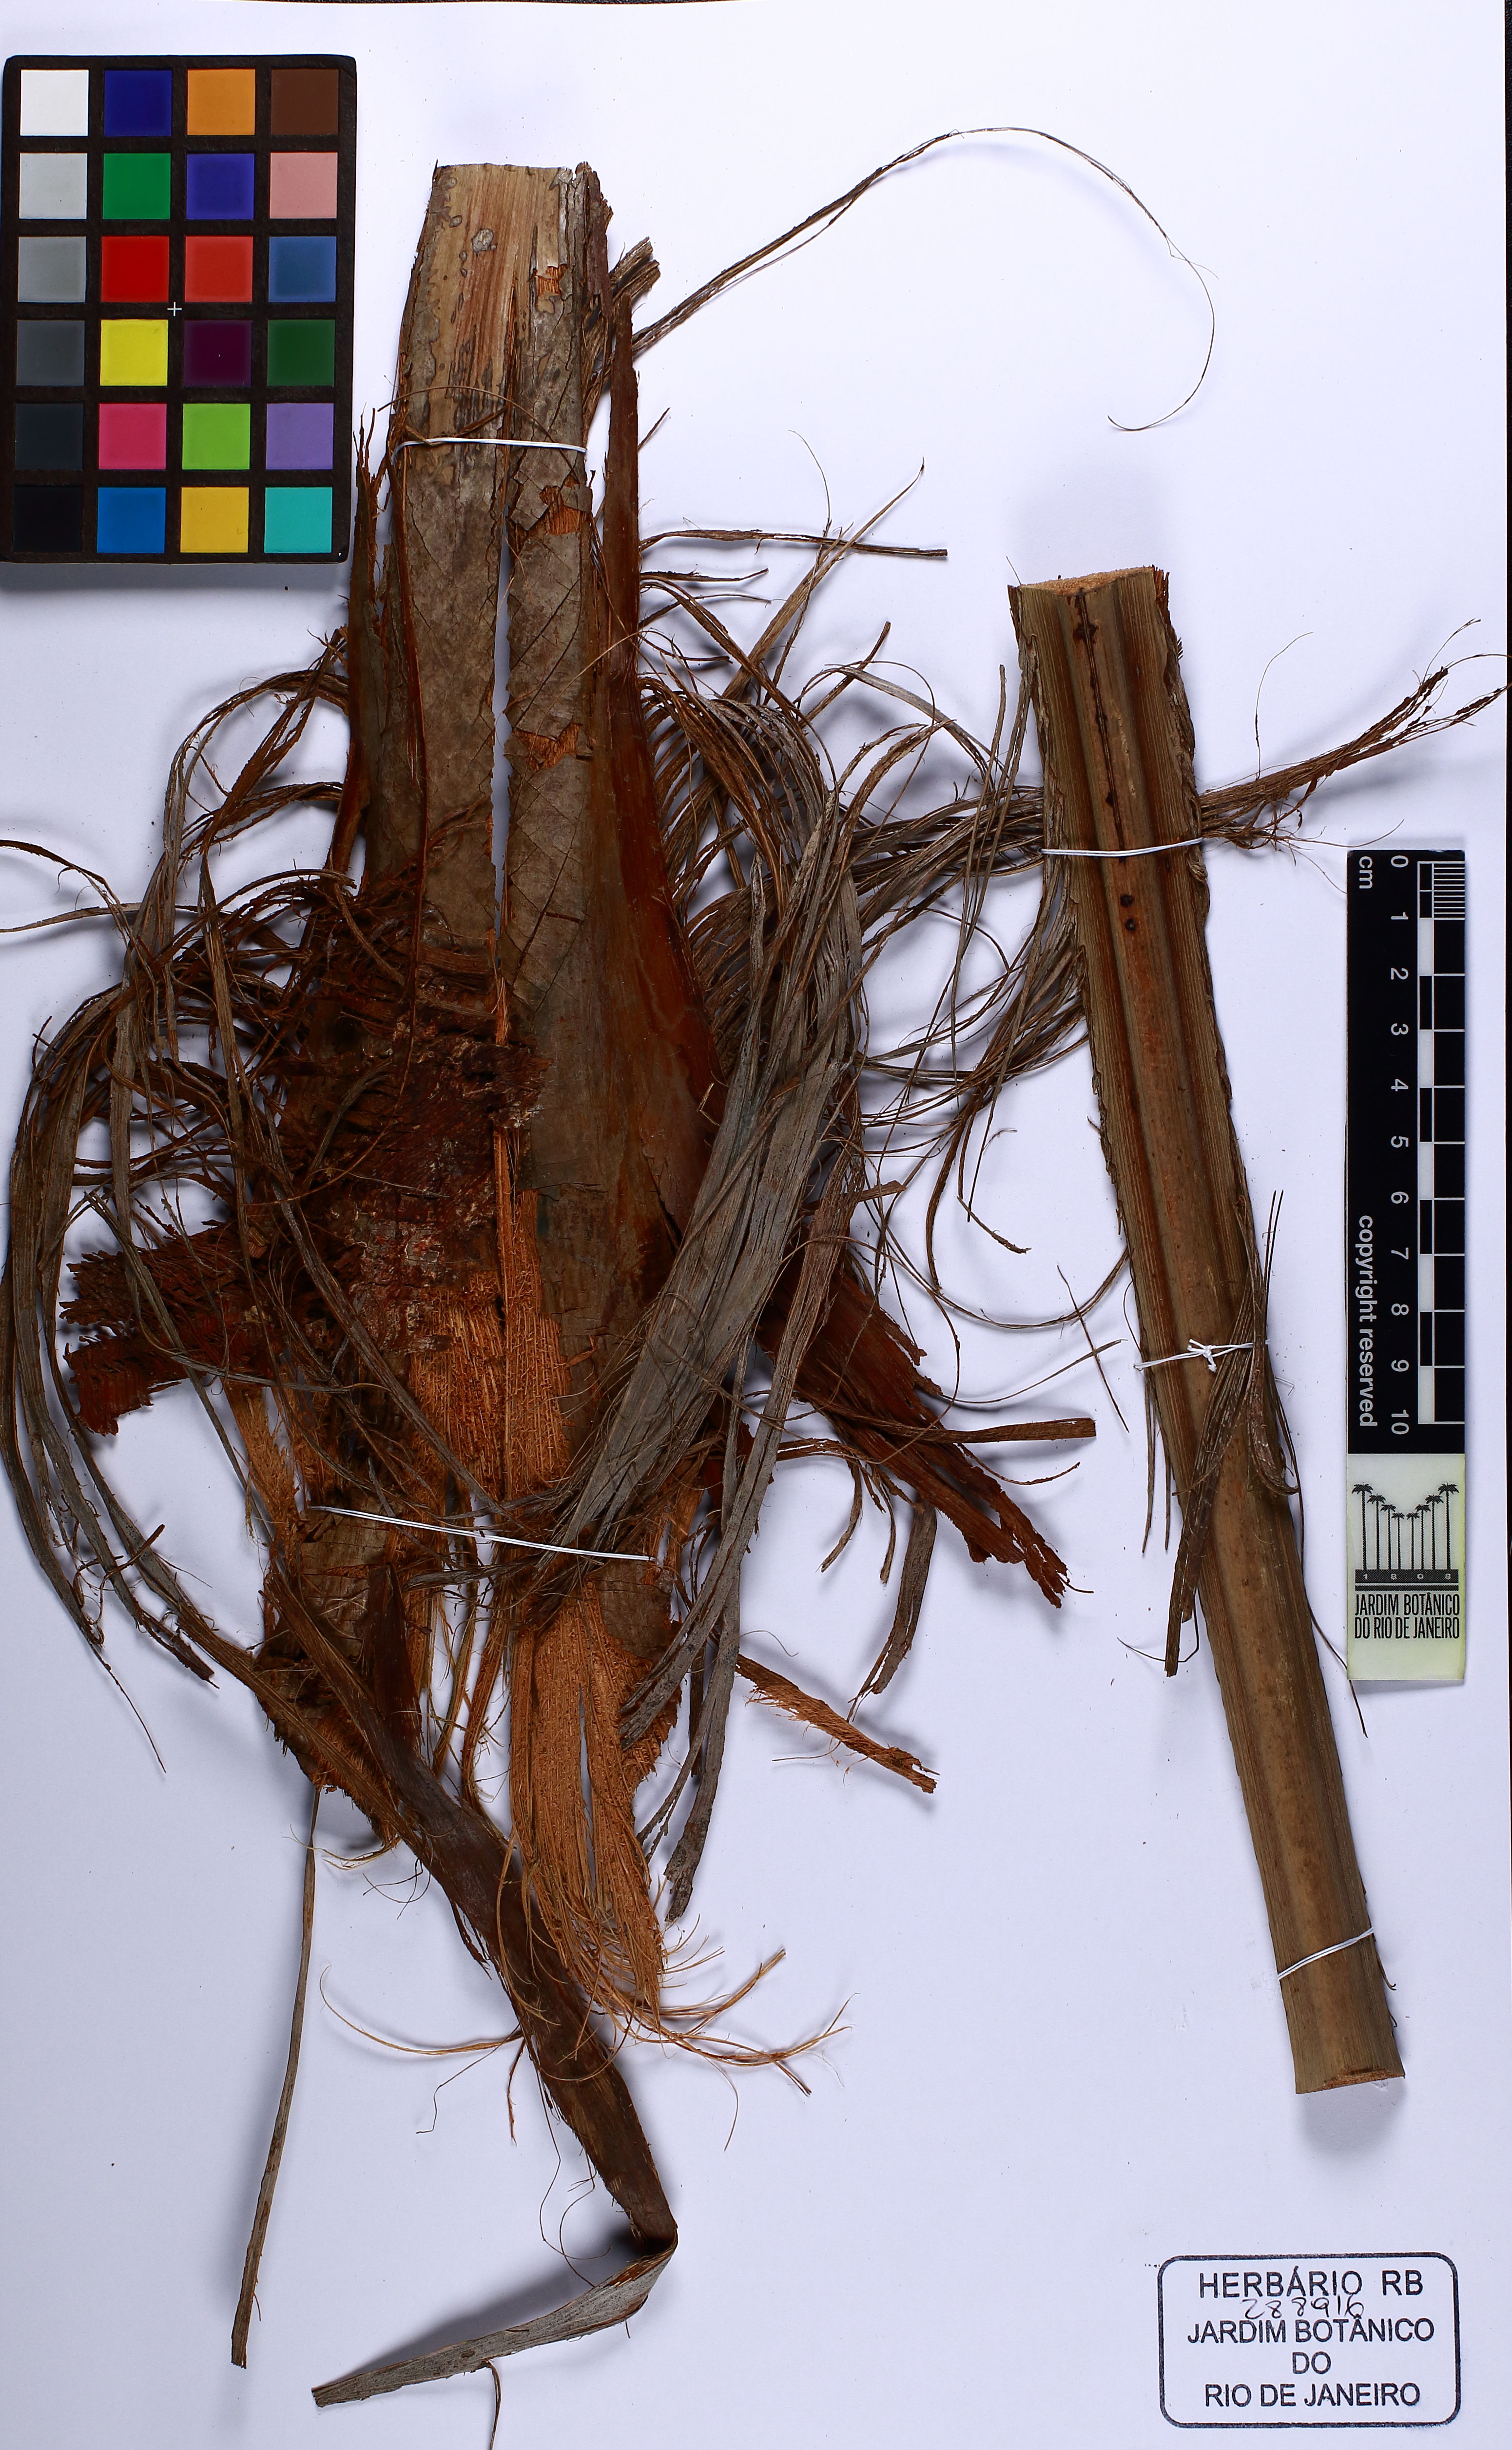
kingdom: Plantae
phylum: Tracheophyta
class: Liliopsida
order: Arecales
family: Arecaceae
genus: Syagrus
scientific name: Syagrus botryophora
